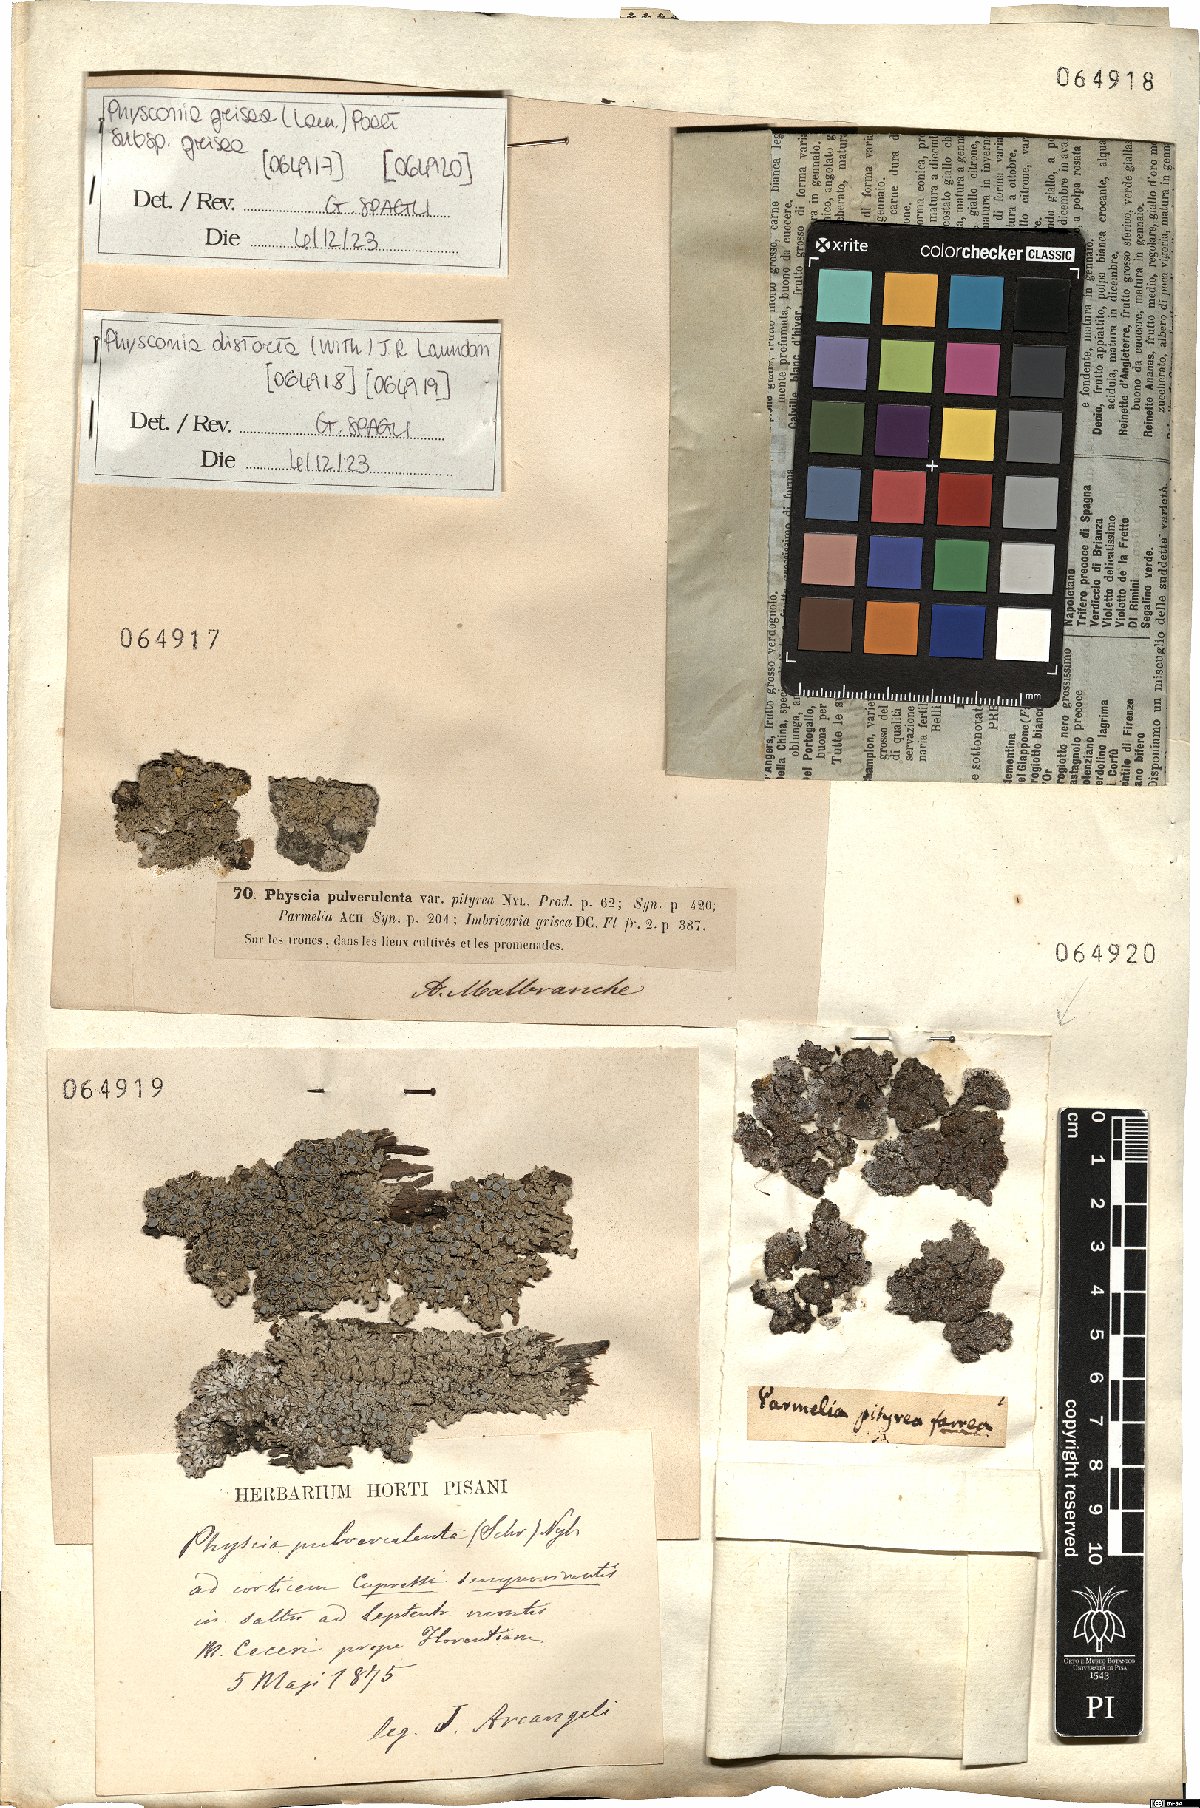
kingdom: Fungi
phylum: Ascomycota
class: Lecanoromycetes
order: Caliciales
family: Physciaceae
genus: Physconia
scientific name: Physconia distorta
